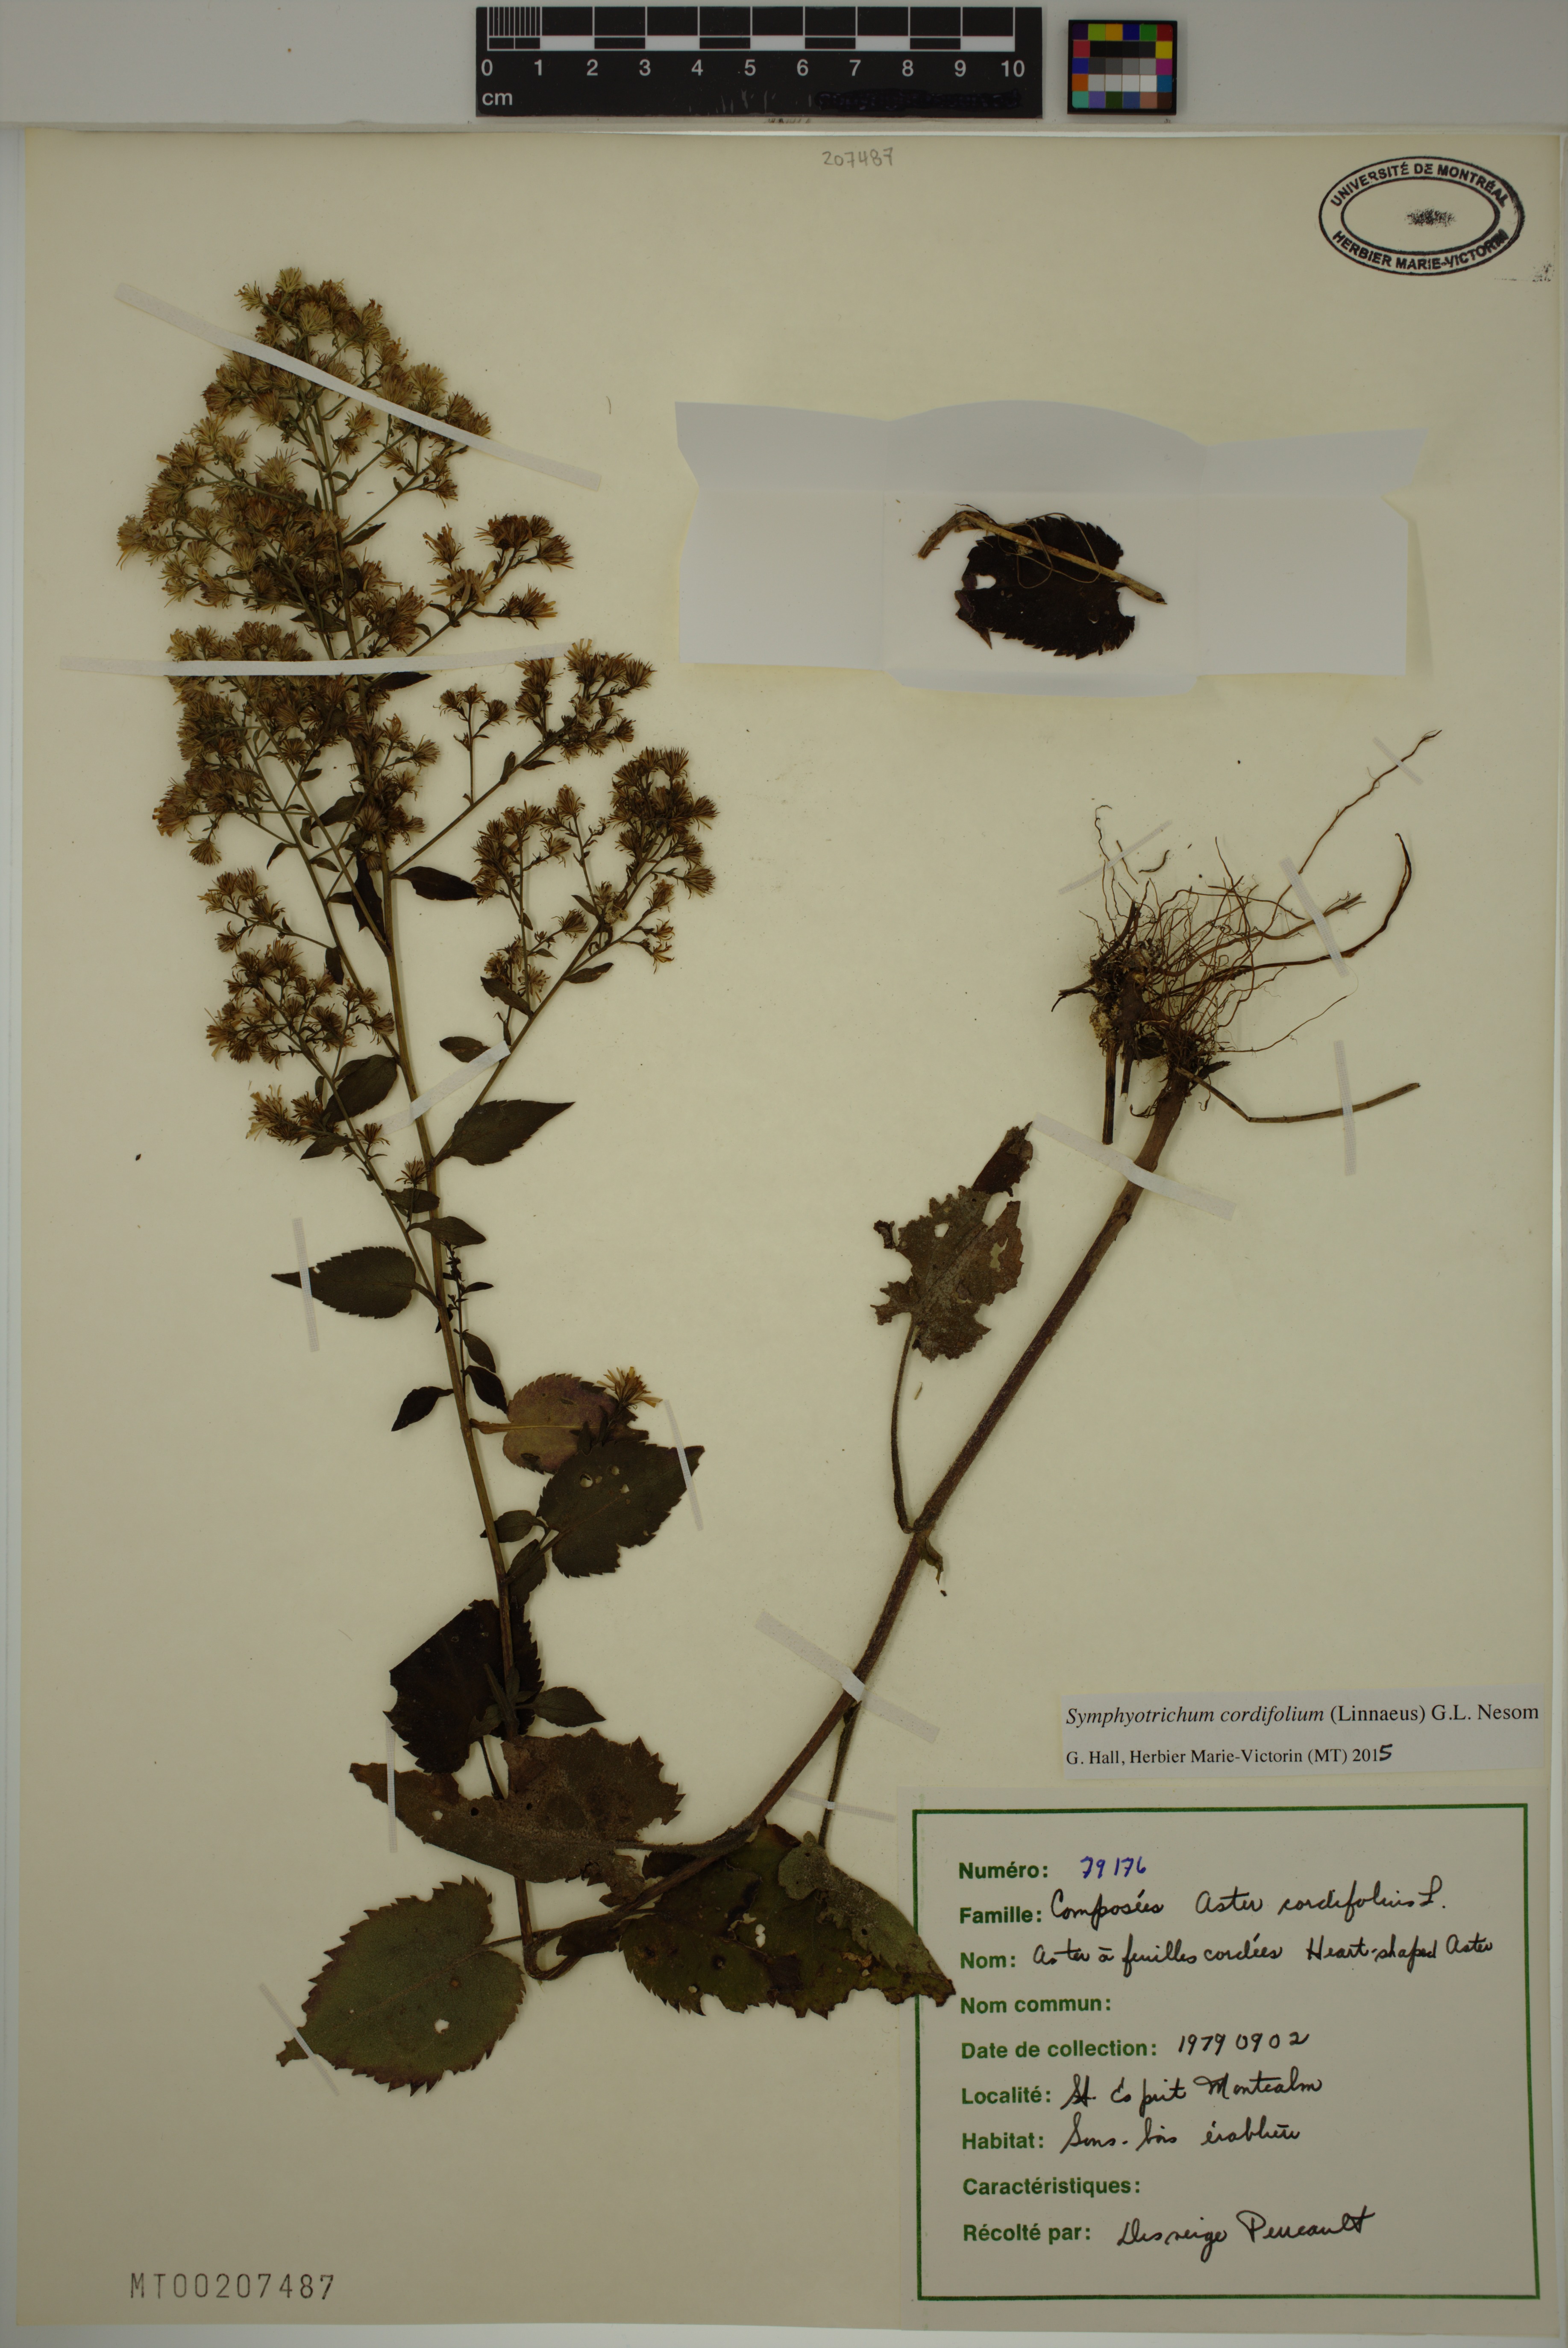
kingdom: Plantae
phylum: Tracheophyta
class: Magnoliopsida
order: Asterales
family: Asteraceae
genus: Symphyotrichum
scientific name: Symphyotrichum cordifolium
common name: Beeweed
